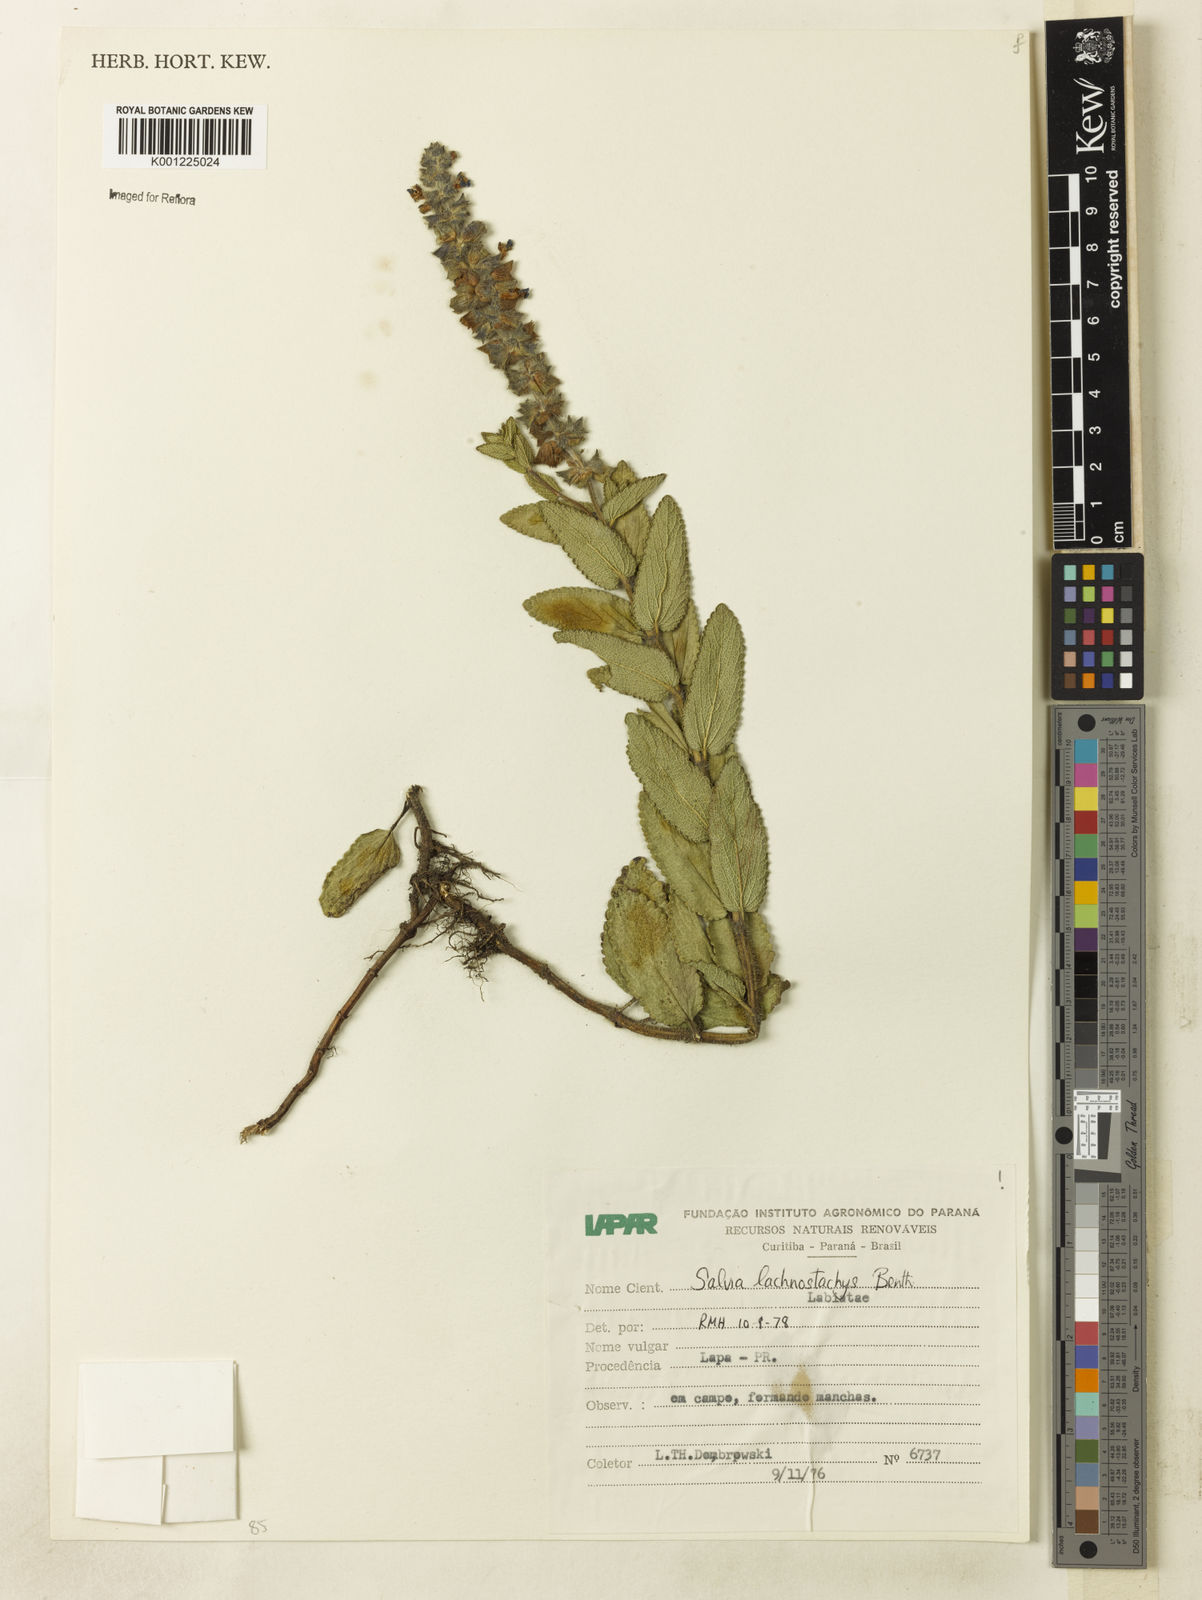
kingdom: Plantae
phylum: Tracheophyta
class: Magnoliopsida
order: Lamiales
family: Lamiaceae
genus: Salvia
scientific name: Salvia lachnostachys
